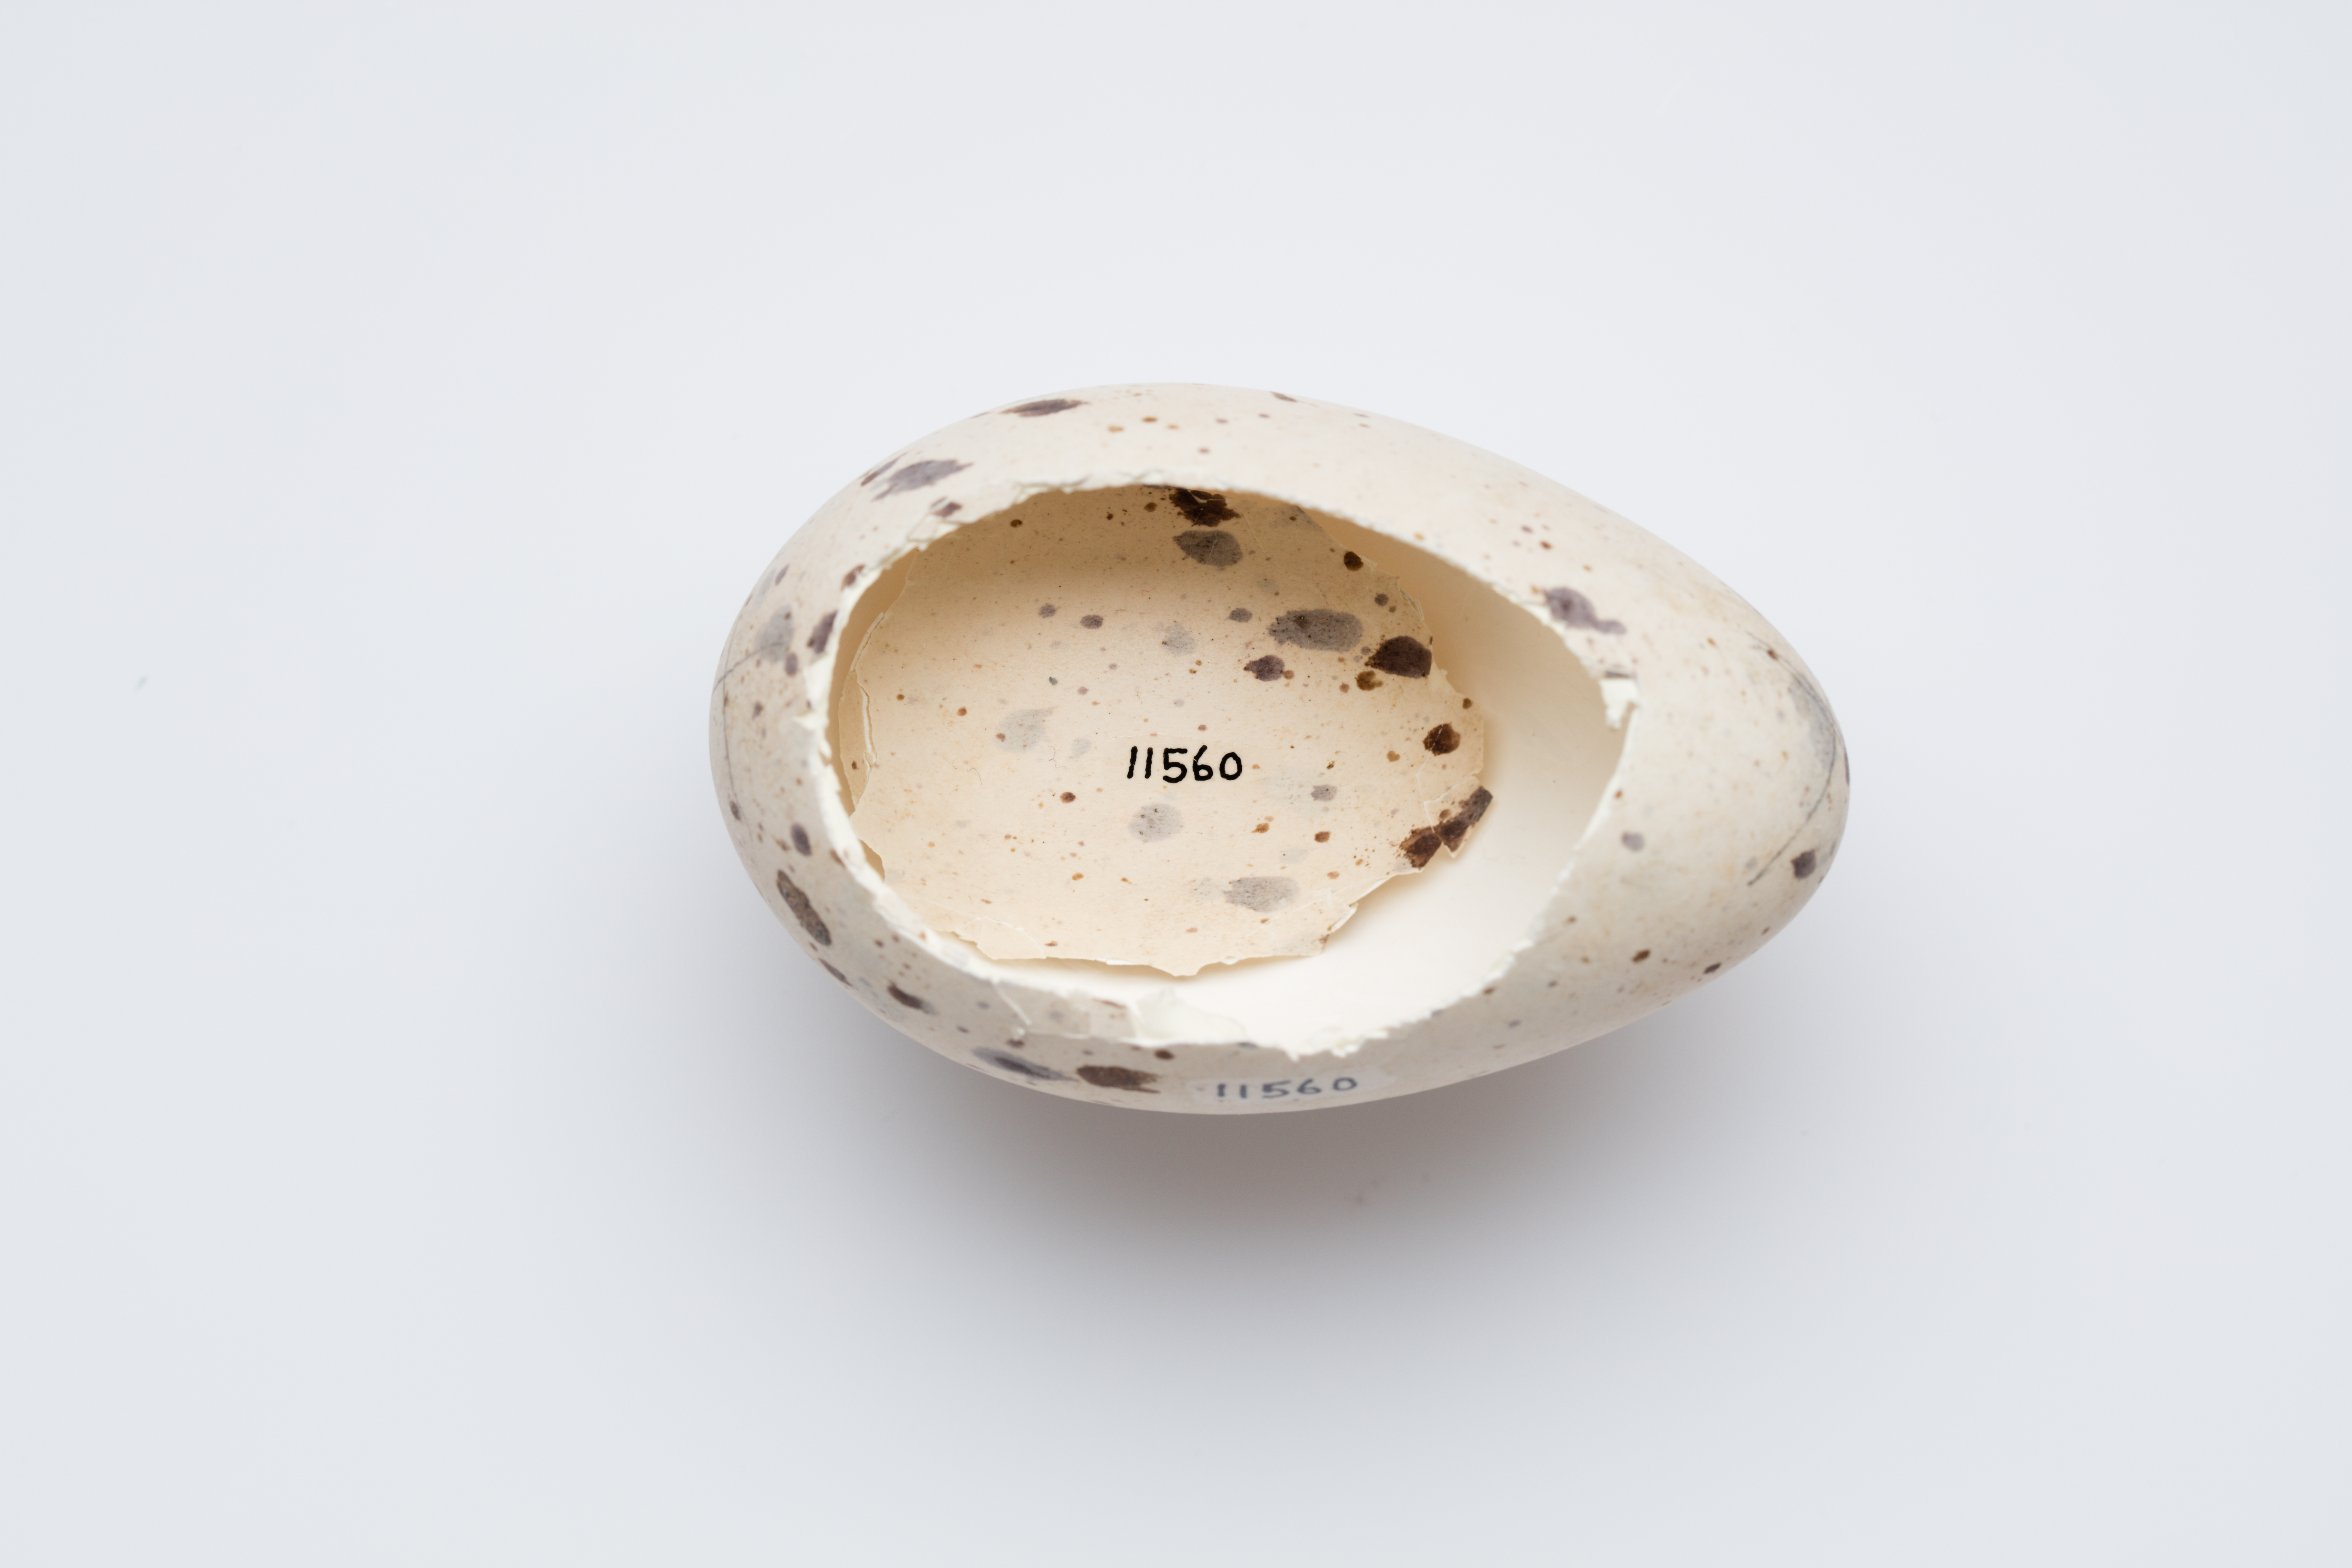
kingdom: Animalia
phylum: Chordata
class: Aves
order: Gruiformes
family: Rallidae
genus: Porphyrio
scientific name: Porphyrio hochstetteri
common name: South island takahe
